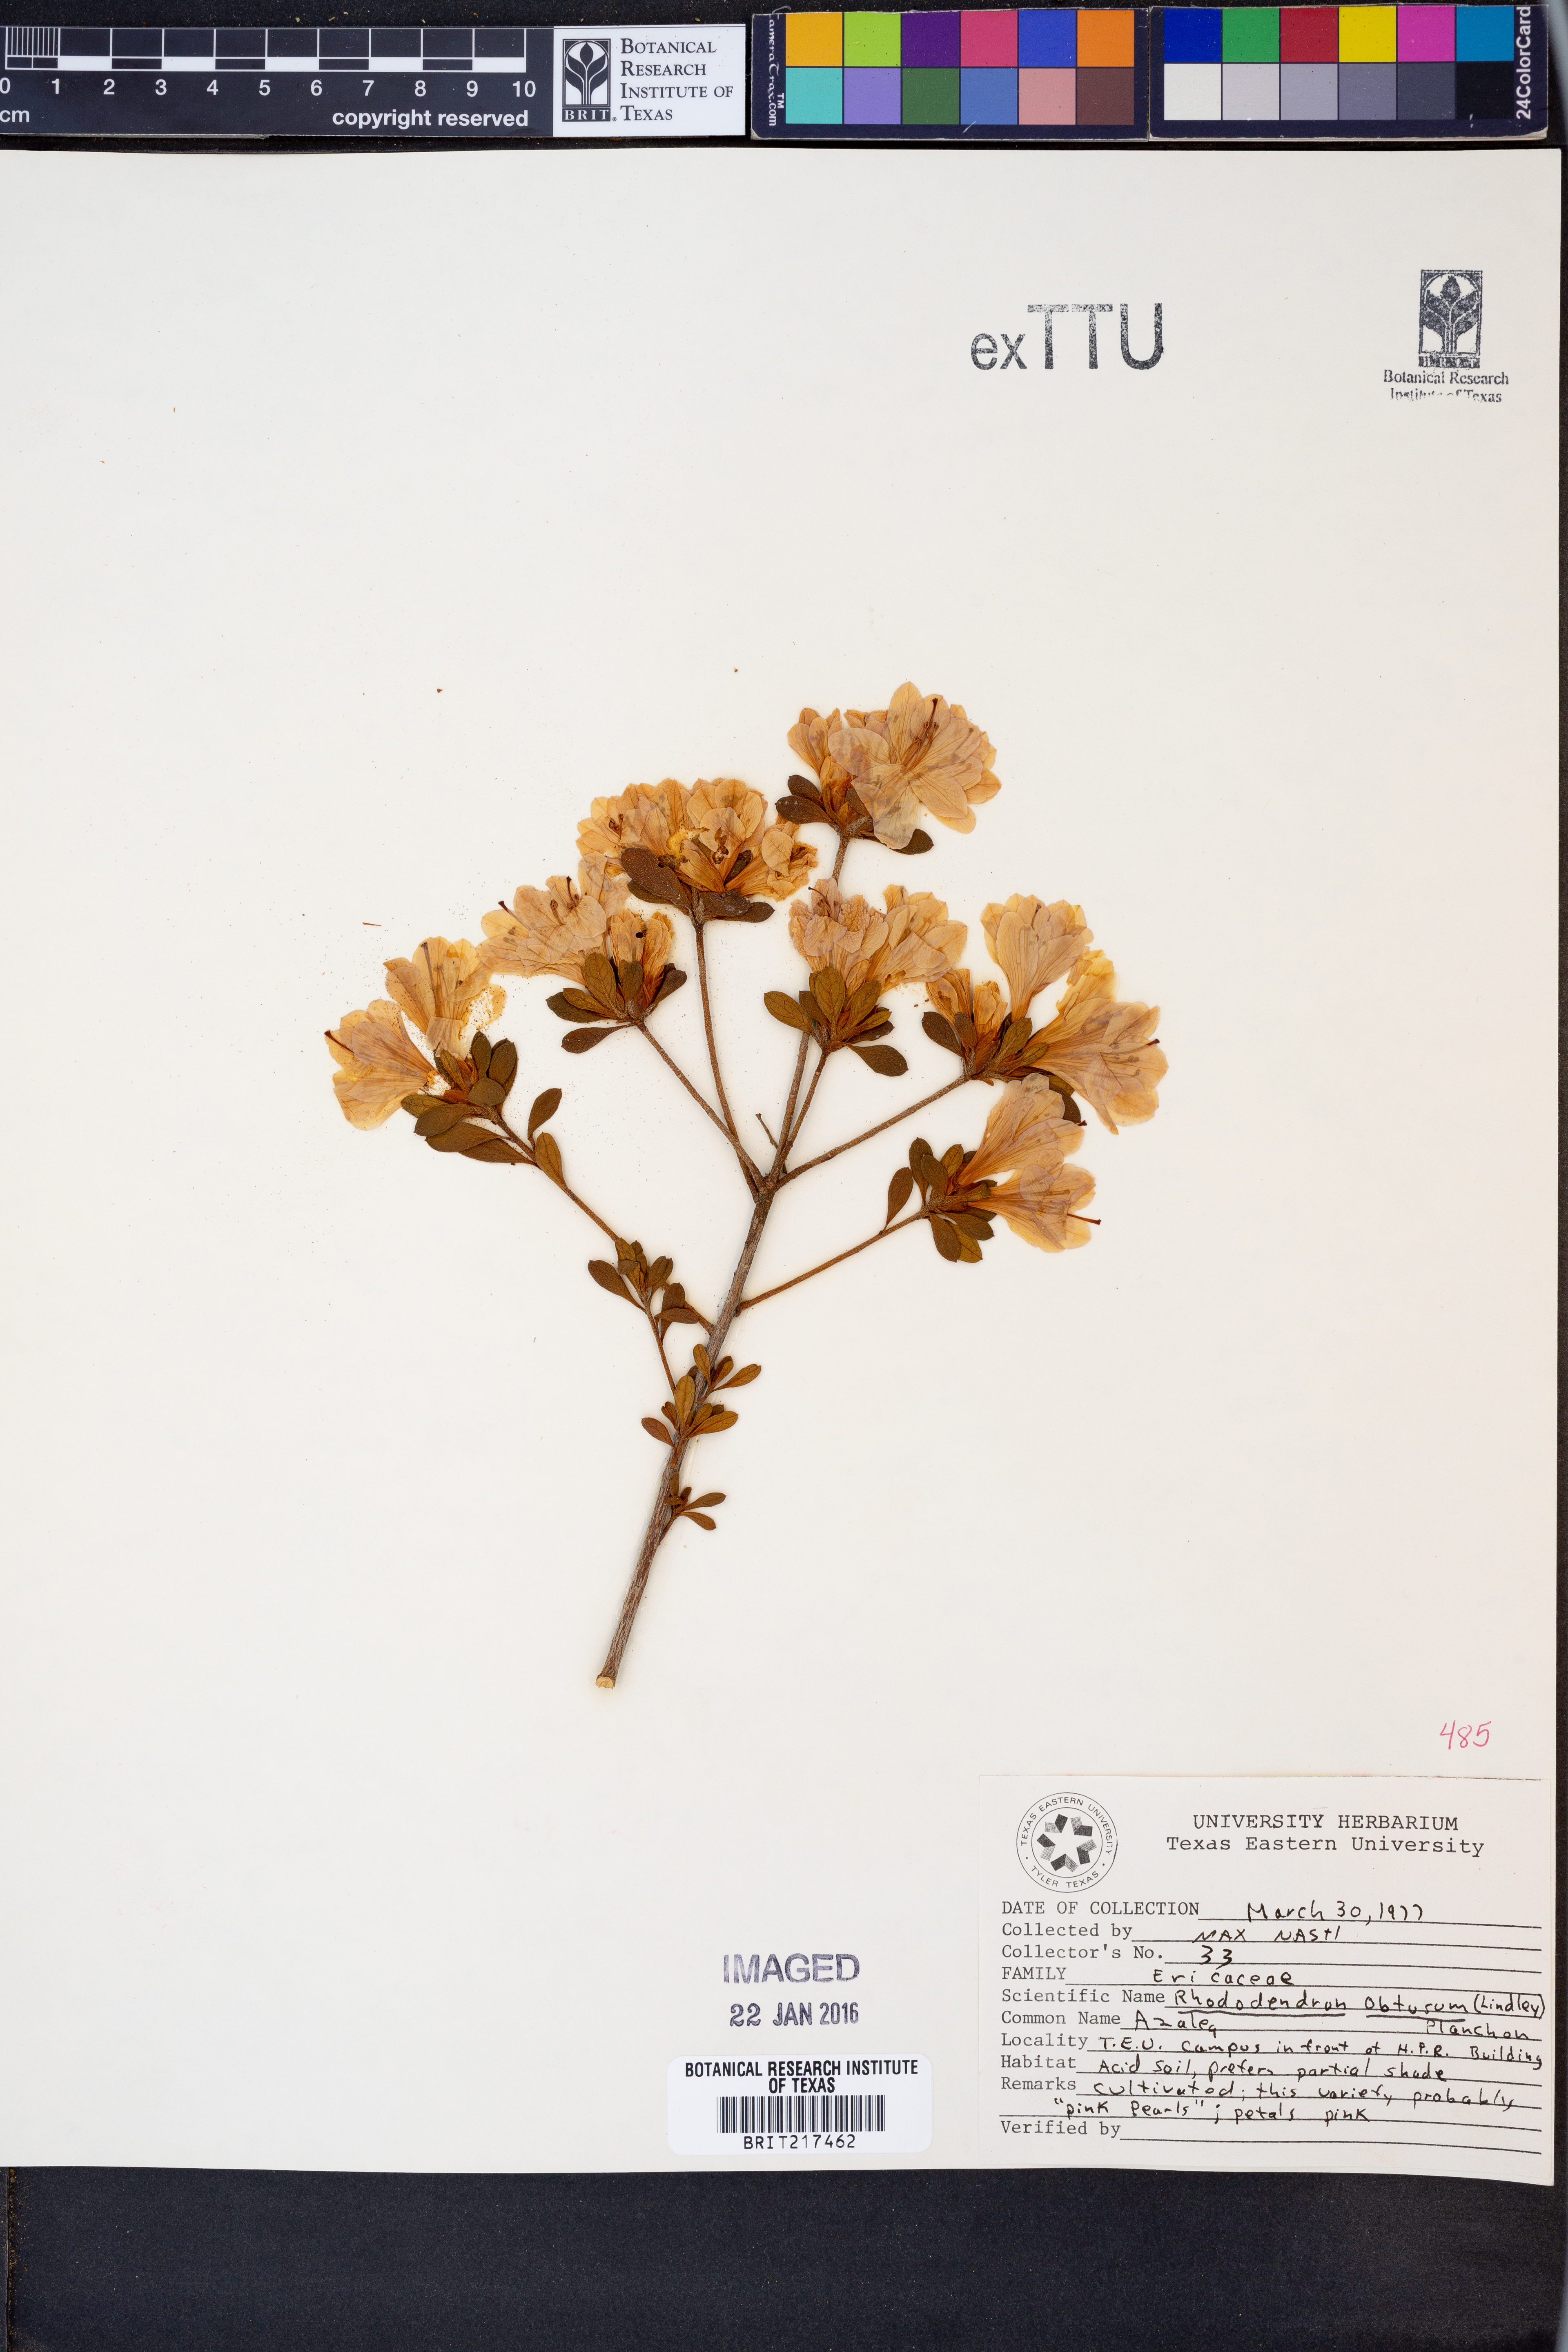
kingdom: Plantae
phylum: Tracheophyta
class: Magnoliopsida
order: Ericales
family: Ericaceae
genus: Rhododendron
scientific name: Rhododendron ponticum
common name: Rhododendron
